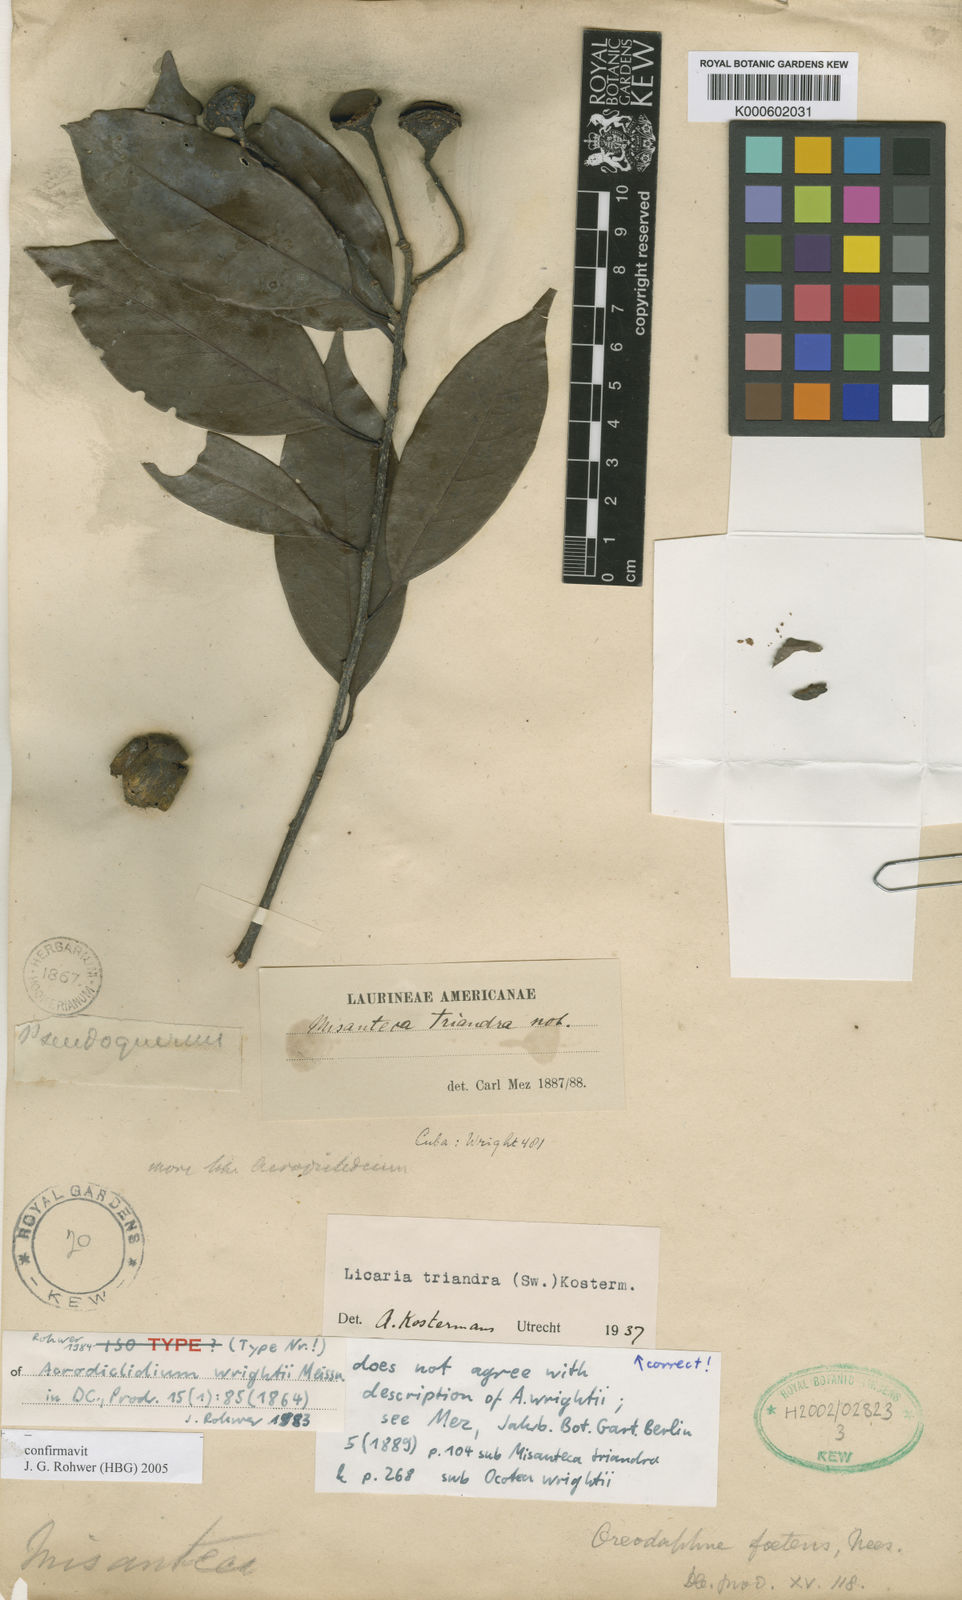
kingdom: Plantae
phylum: Tracheophyta
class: Magnoliopsida
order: Laurales
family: Lauraceae
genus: Licaria
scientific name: Licaria triandra
